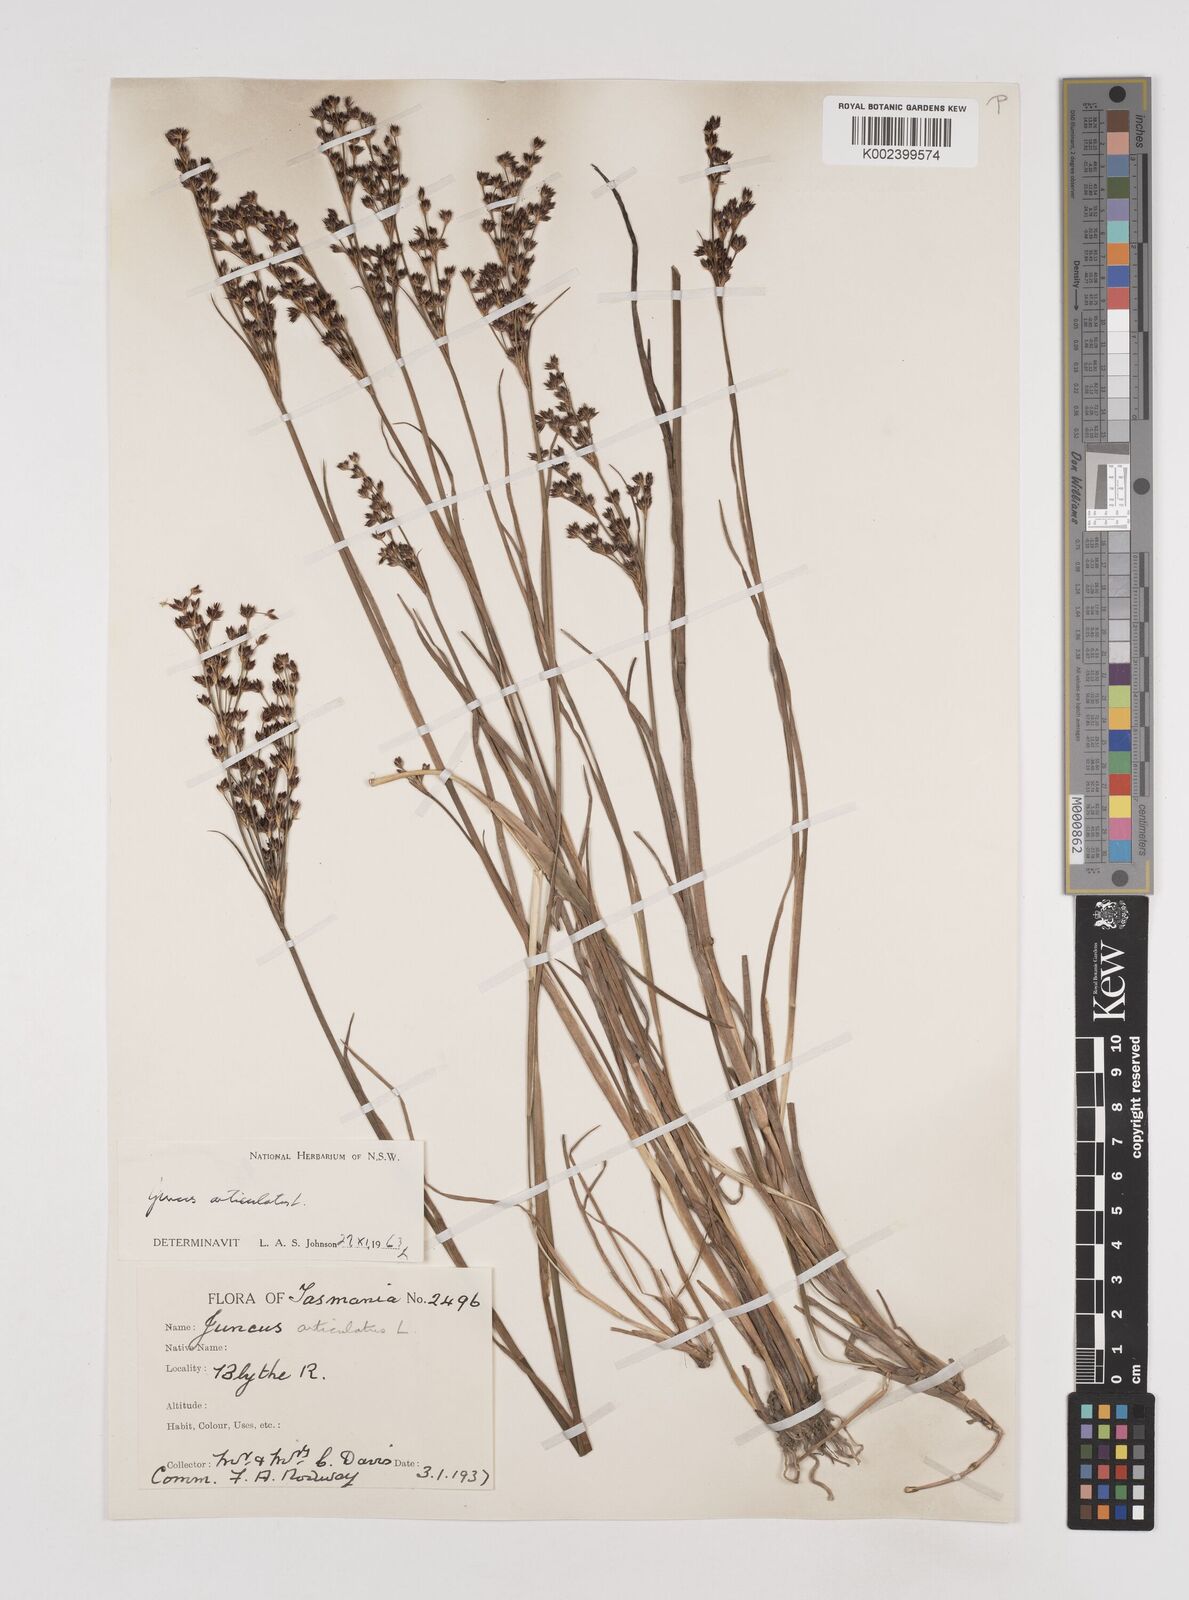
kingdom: Plantae
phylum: Tracheophyta
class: Liliopsida
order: Poales
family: Juncaceae
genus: Juncus
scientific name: Juncus articulatus
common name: Jointed rush
